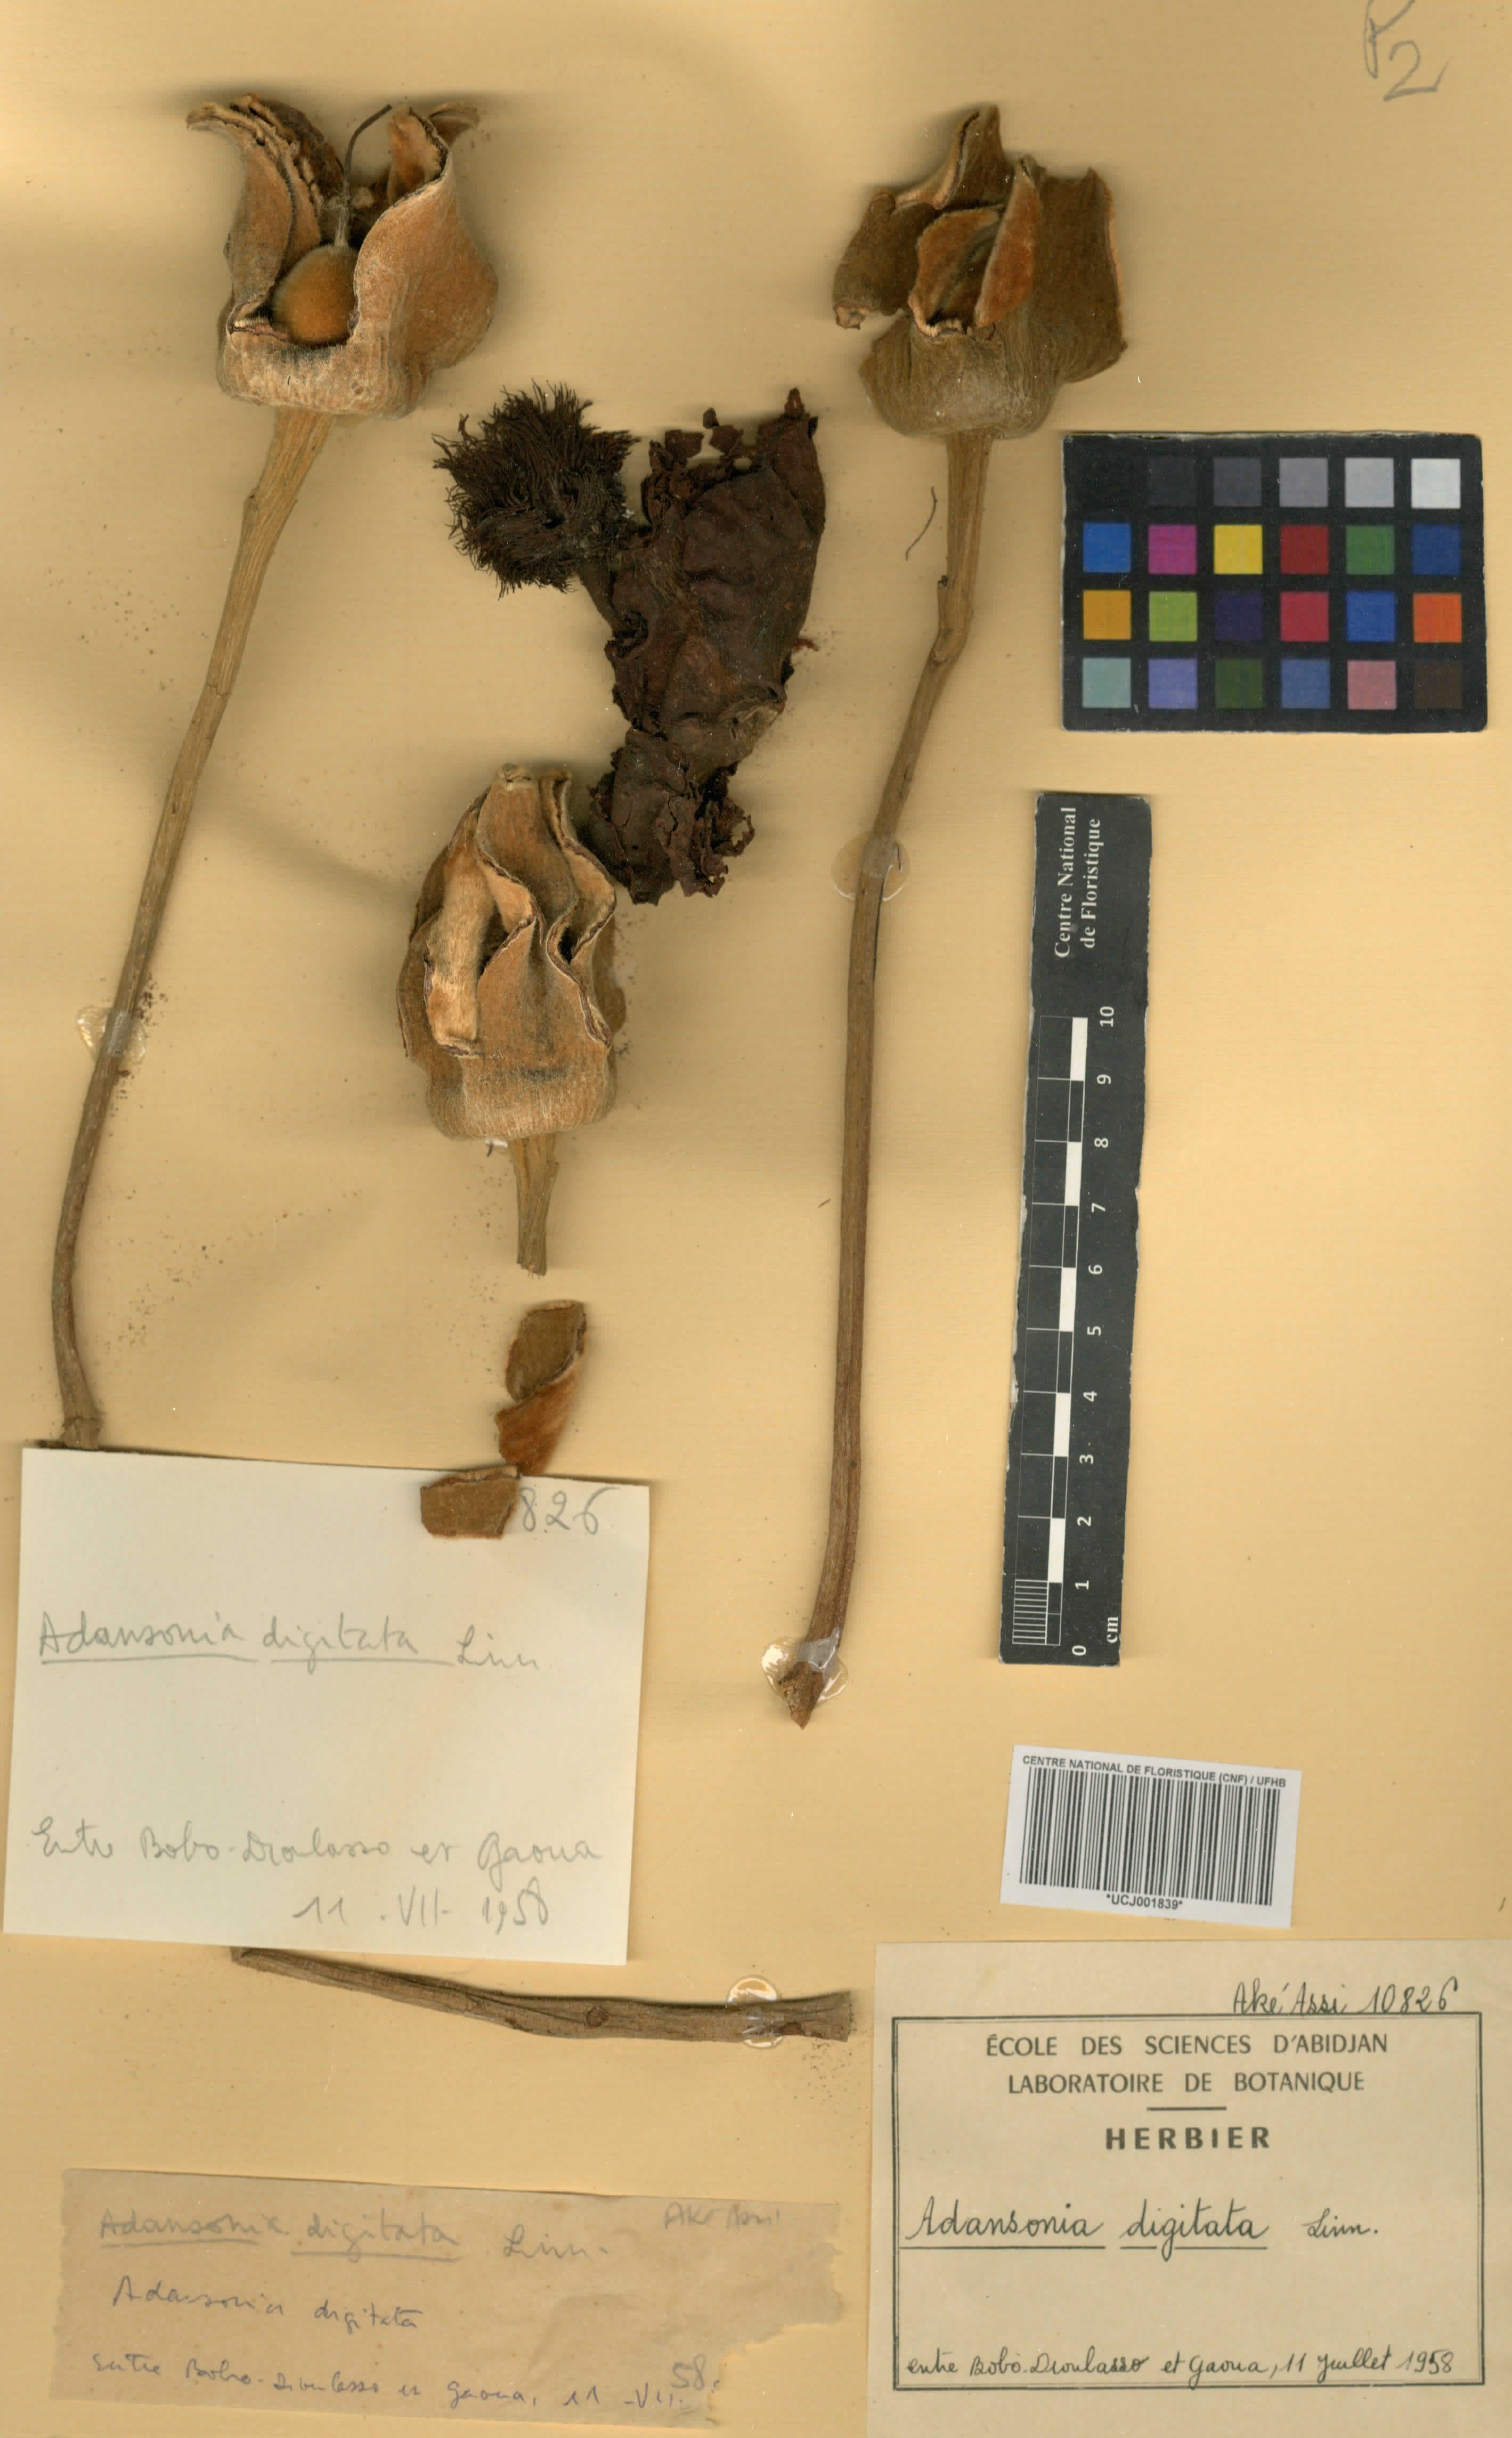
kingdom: Plantae
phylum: Tracheophyta
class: Magnoliopsida
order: Malvales
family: Malvaceae
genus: Adansonia
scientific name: Adansonia digitata
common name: Dead-rat-tree
